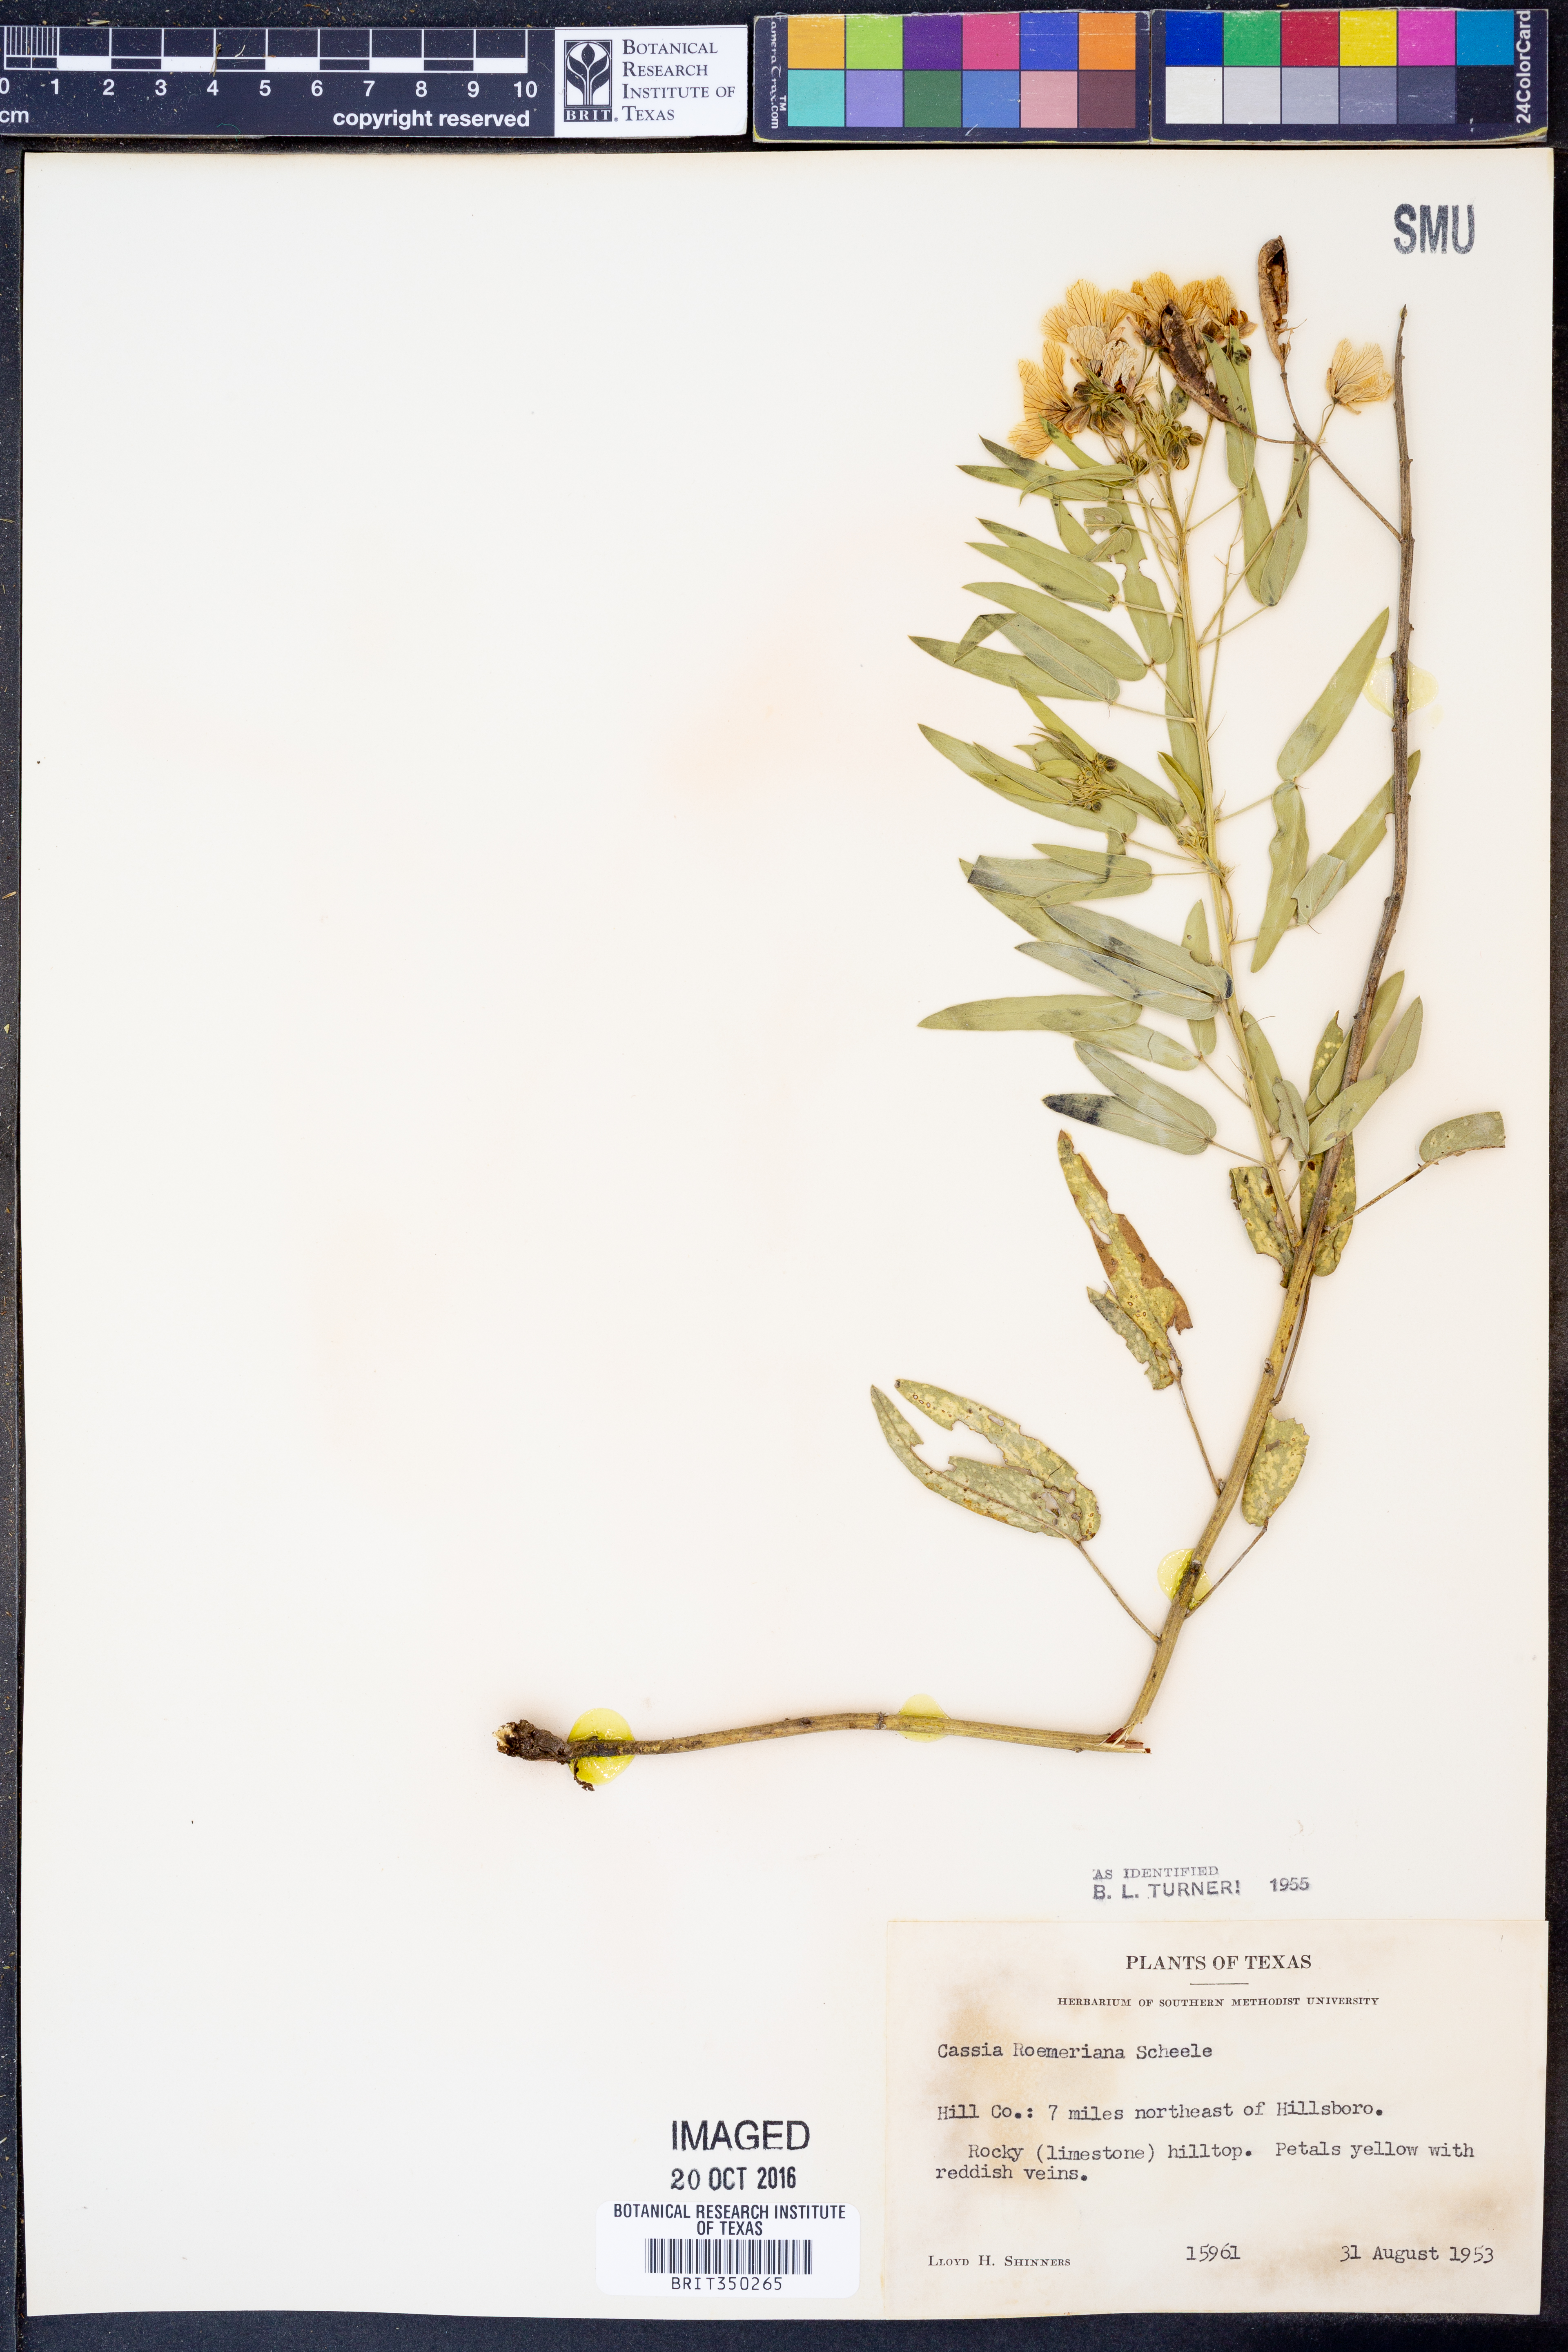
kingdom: Plantae
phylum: Tracheophyta
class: Magnoliopsida
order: Fabales
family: Fabaceae
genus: Senna
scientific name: Senna roemeriana
